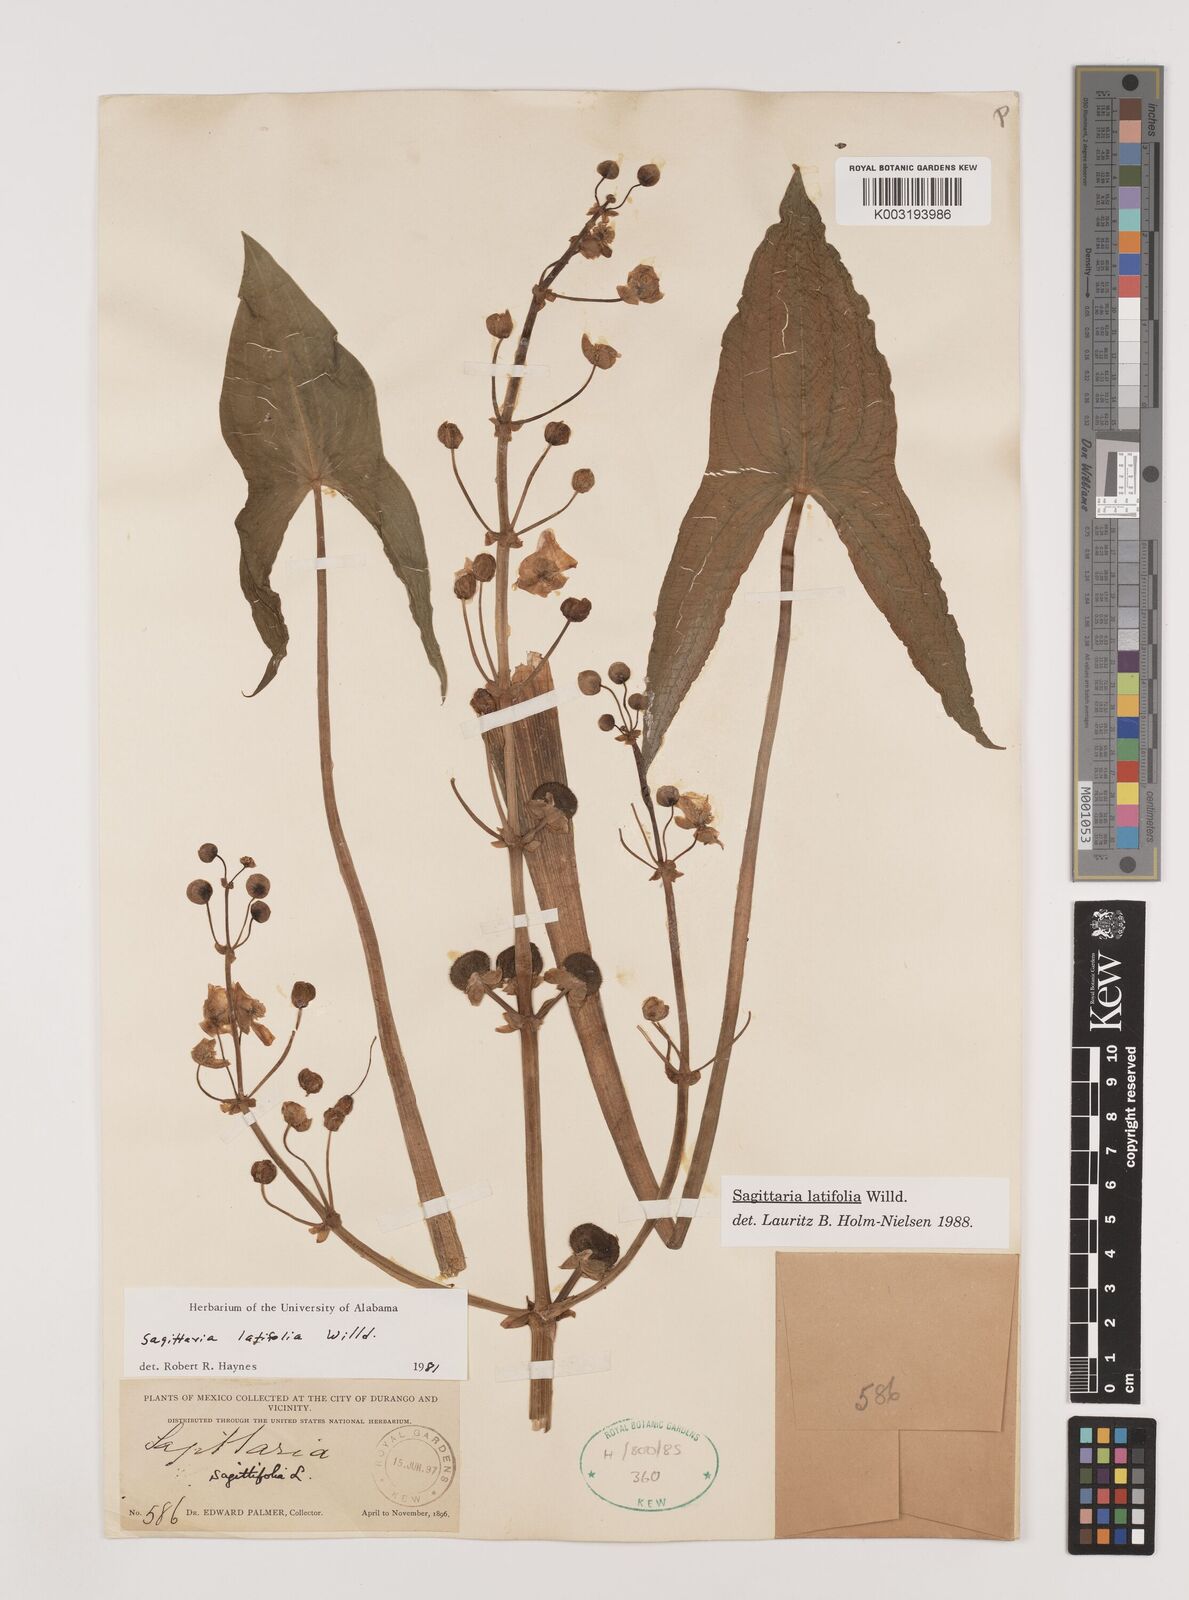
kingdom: Plantae
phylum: Tracheophyta
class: Liliopsida
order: Alismatales
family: Alismataceae
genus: Sagittaria
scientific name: Sagittaria latifolia
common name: Duck-potato
